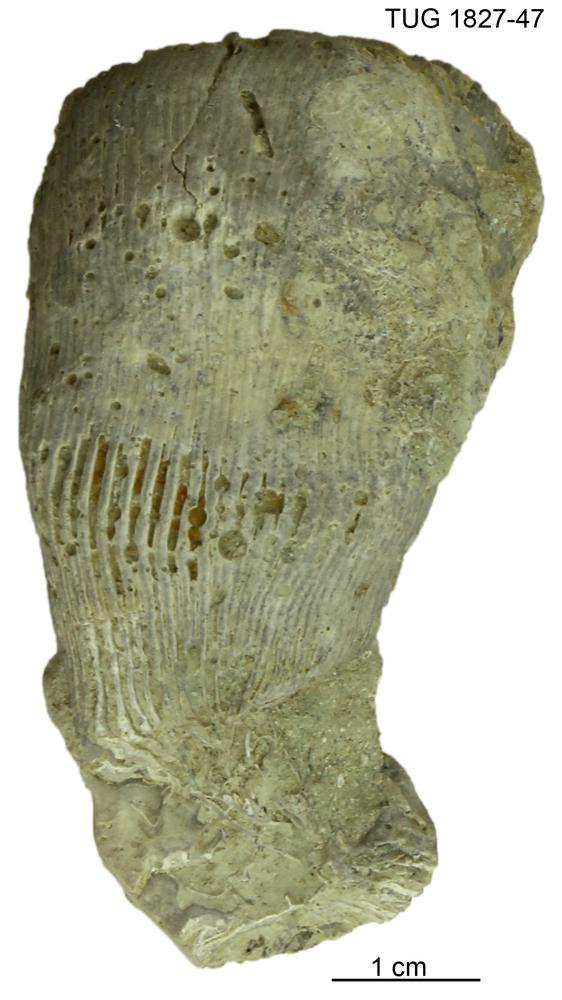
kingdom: Animalia
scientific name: Animalia
